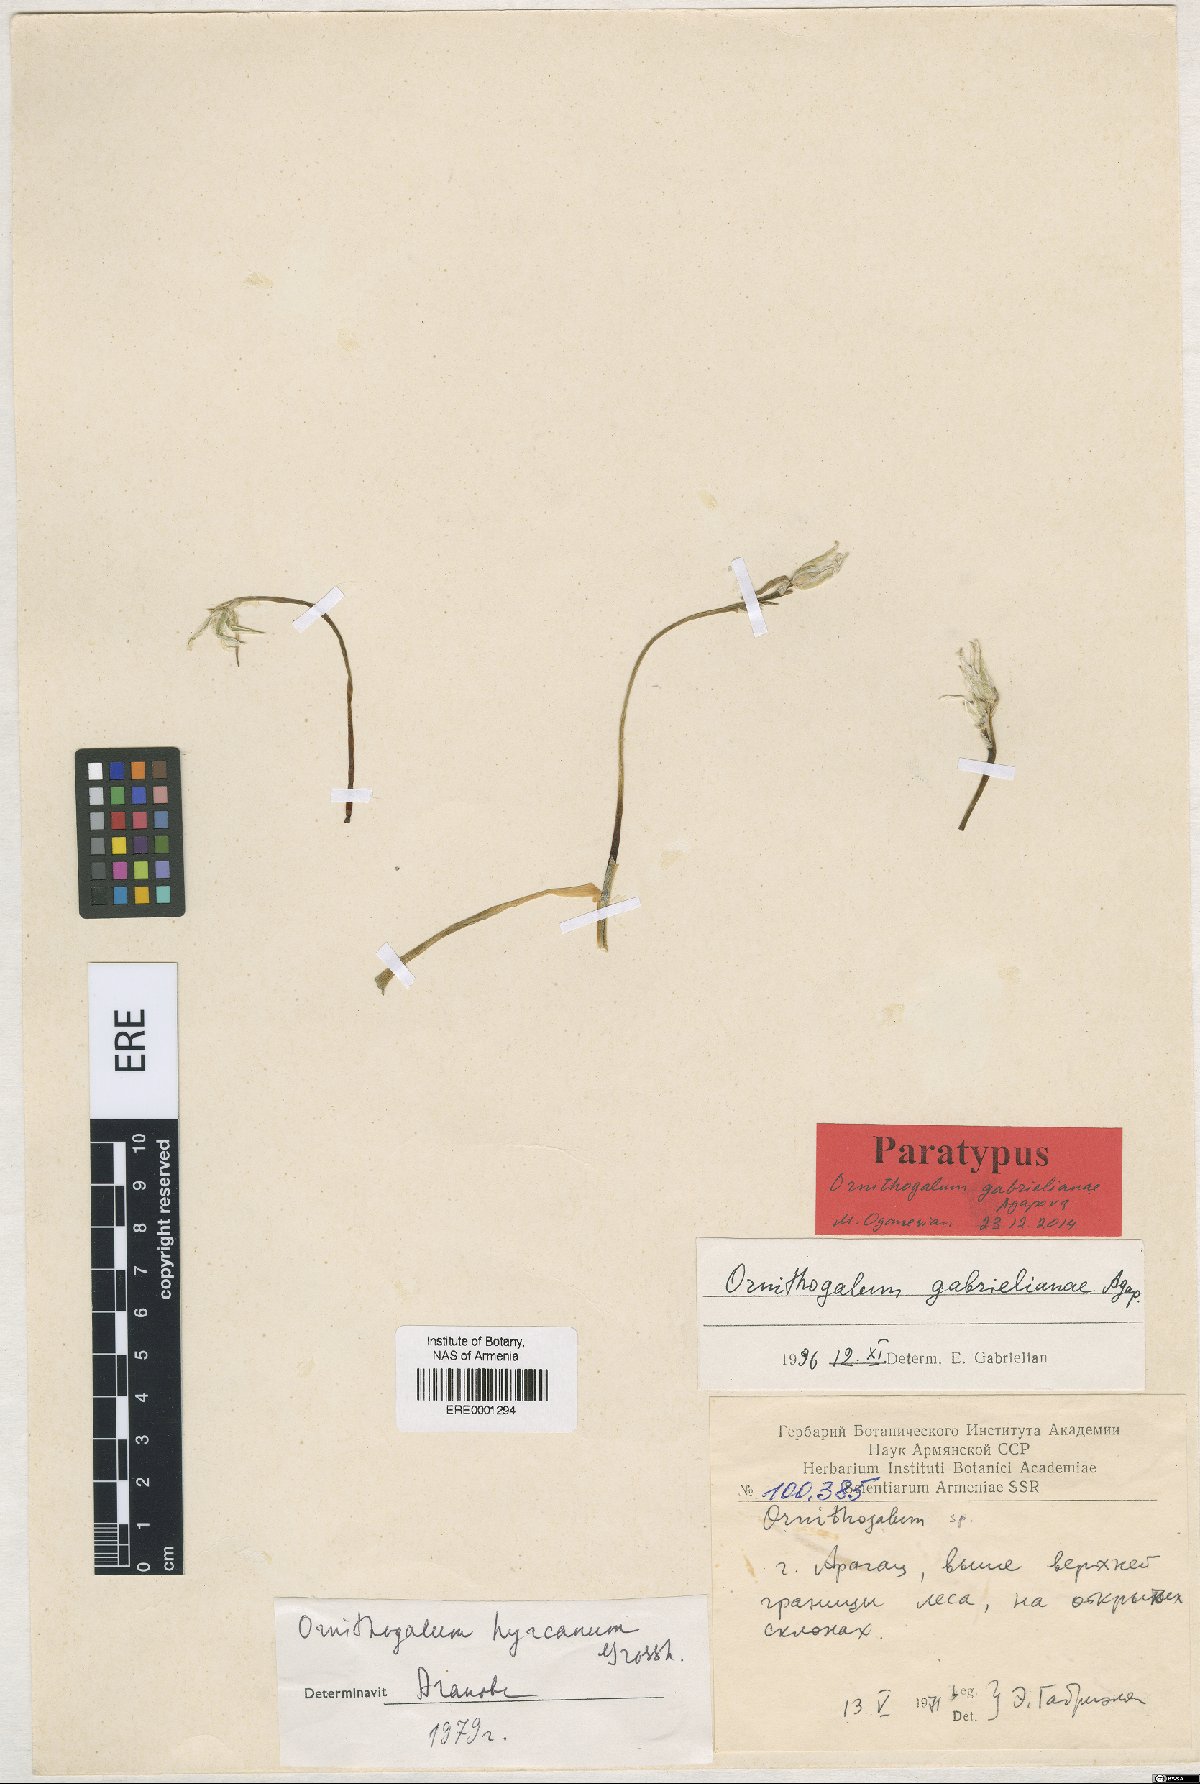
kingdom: Plantae
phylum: Tracheophyta
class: Liliopsida
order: Asparagales
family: Asparagaceae
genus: Ornithogalum
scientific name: Ornithogalum gabrielianiae
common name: Gabrielyan's starflowers
